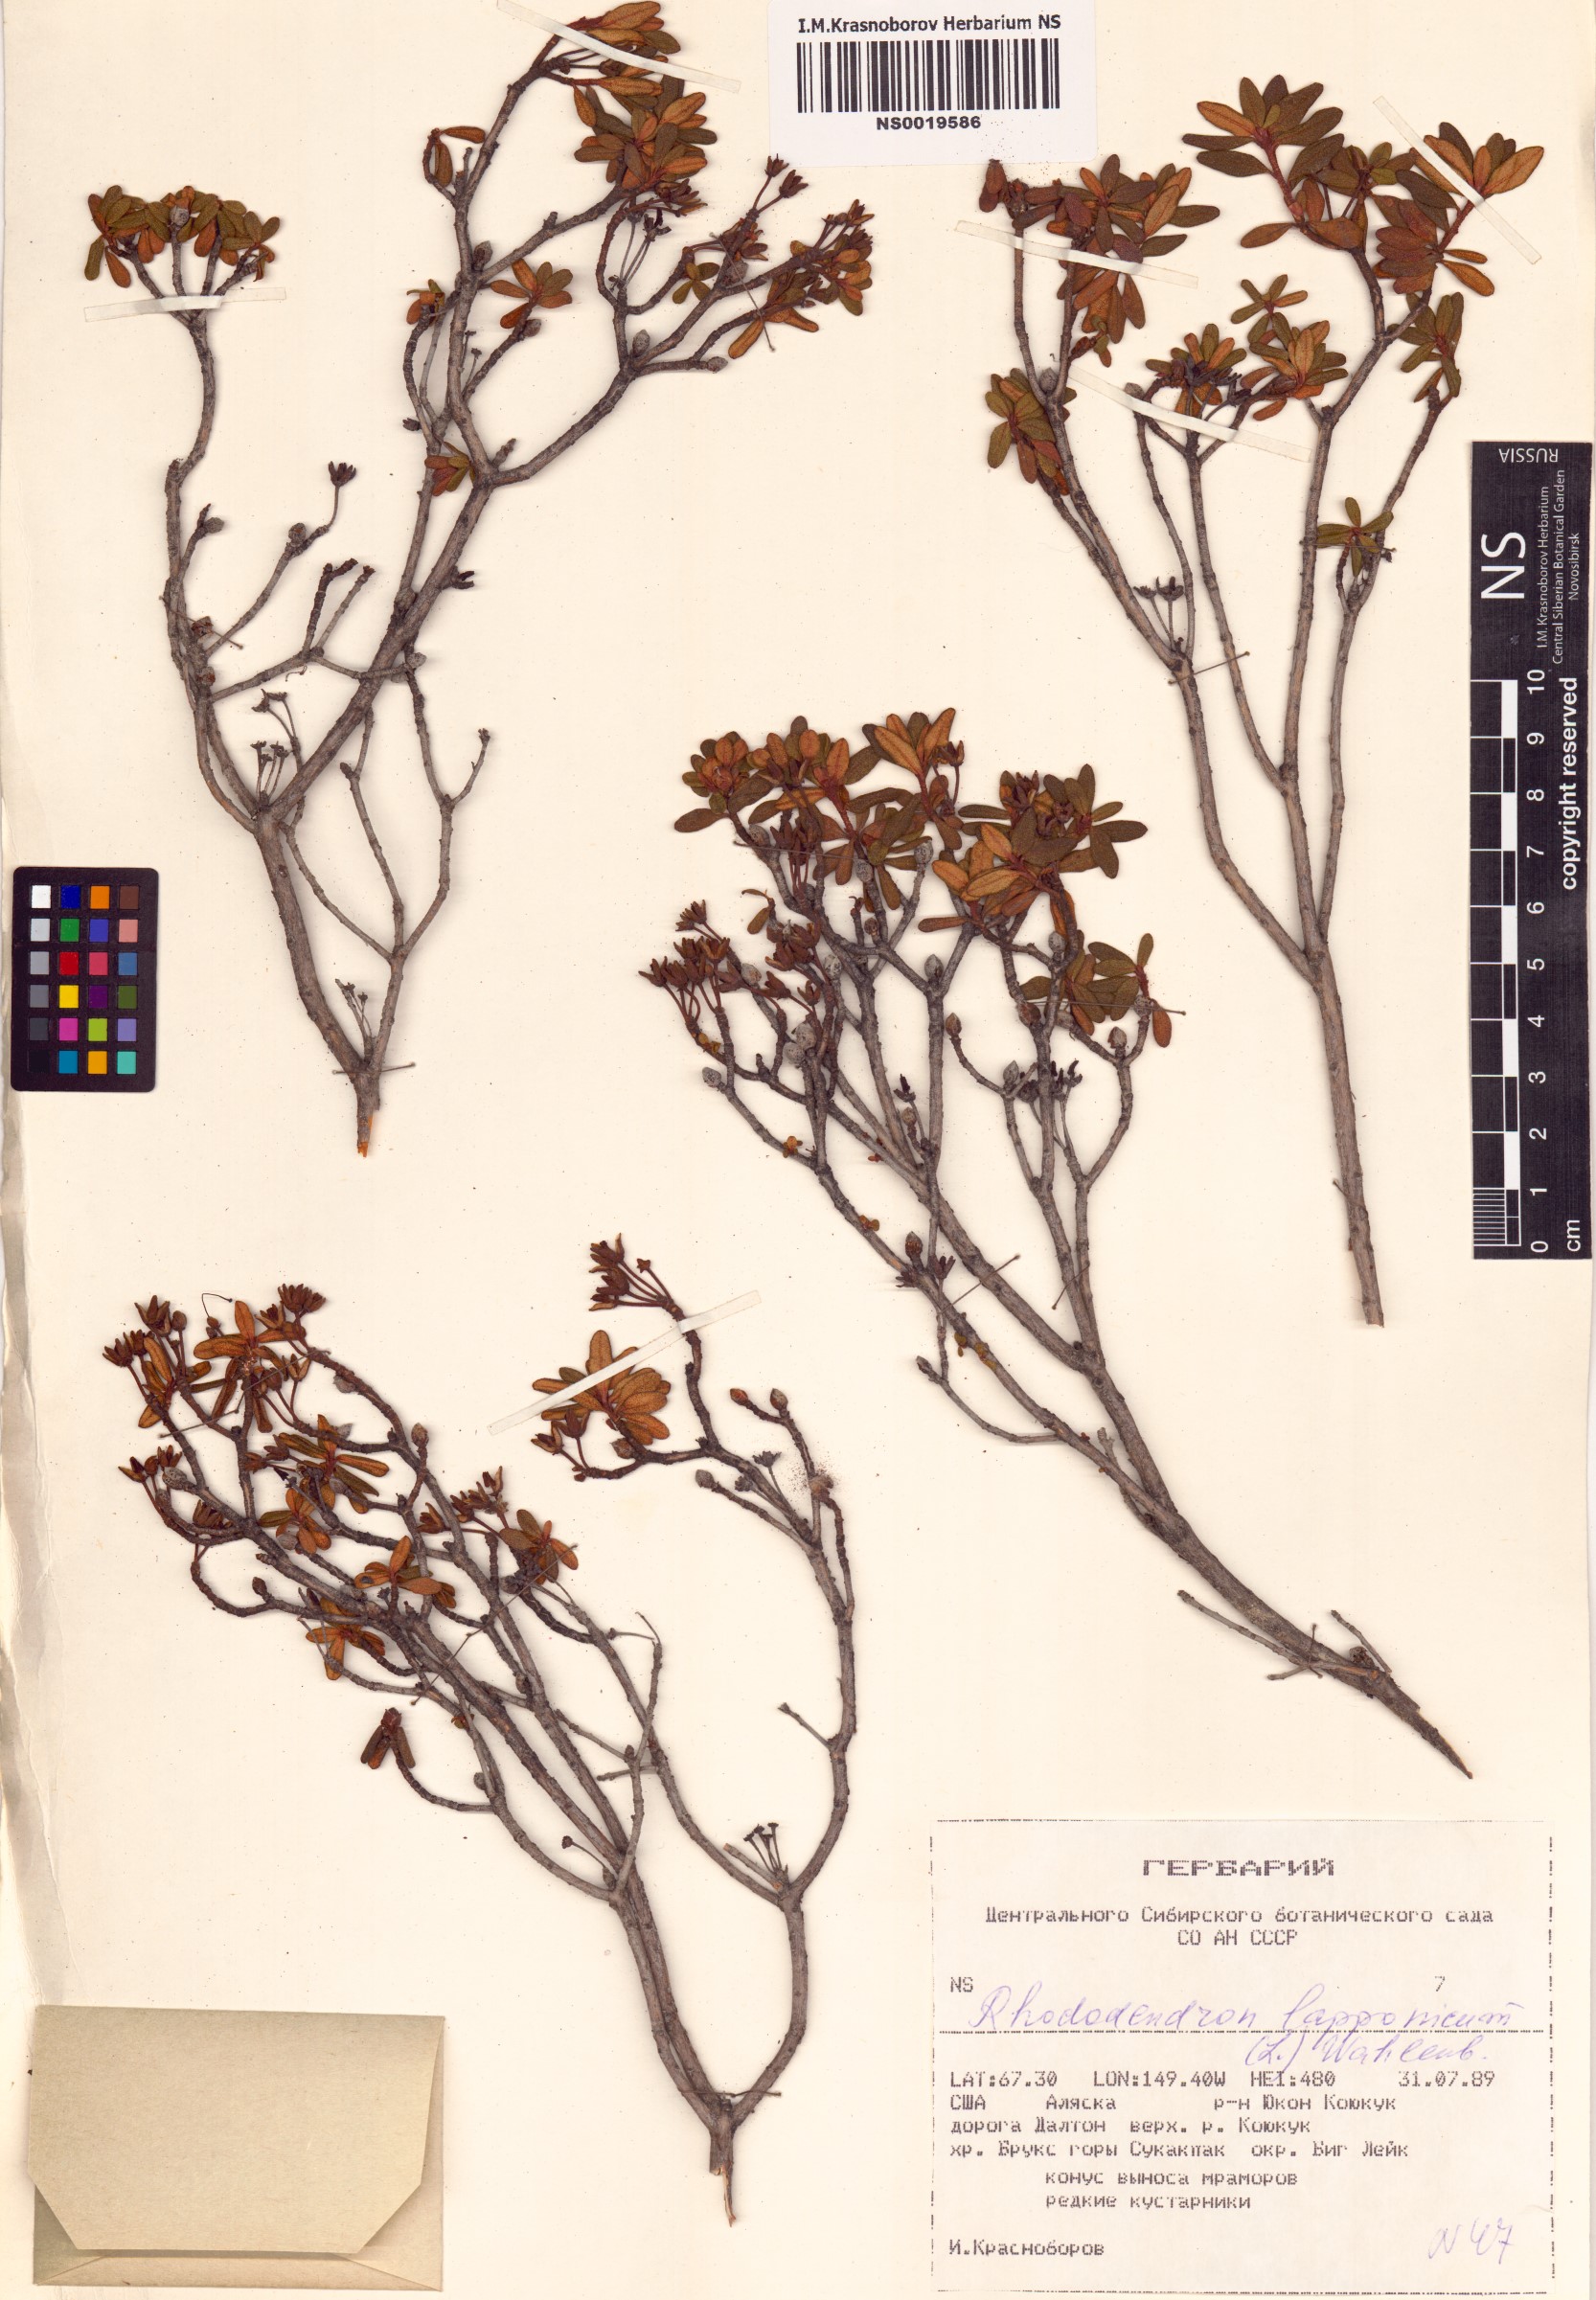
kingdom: Plantae
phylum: Tracheophyta
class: Magnoliopsida
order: Ericales
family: Ericaceae
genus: Rhododendron
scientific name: Rhododendron lapponicum
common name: Lapland rhododendron
